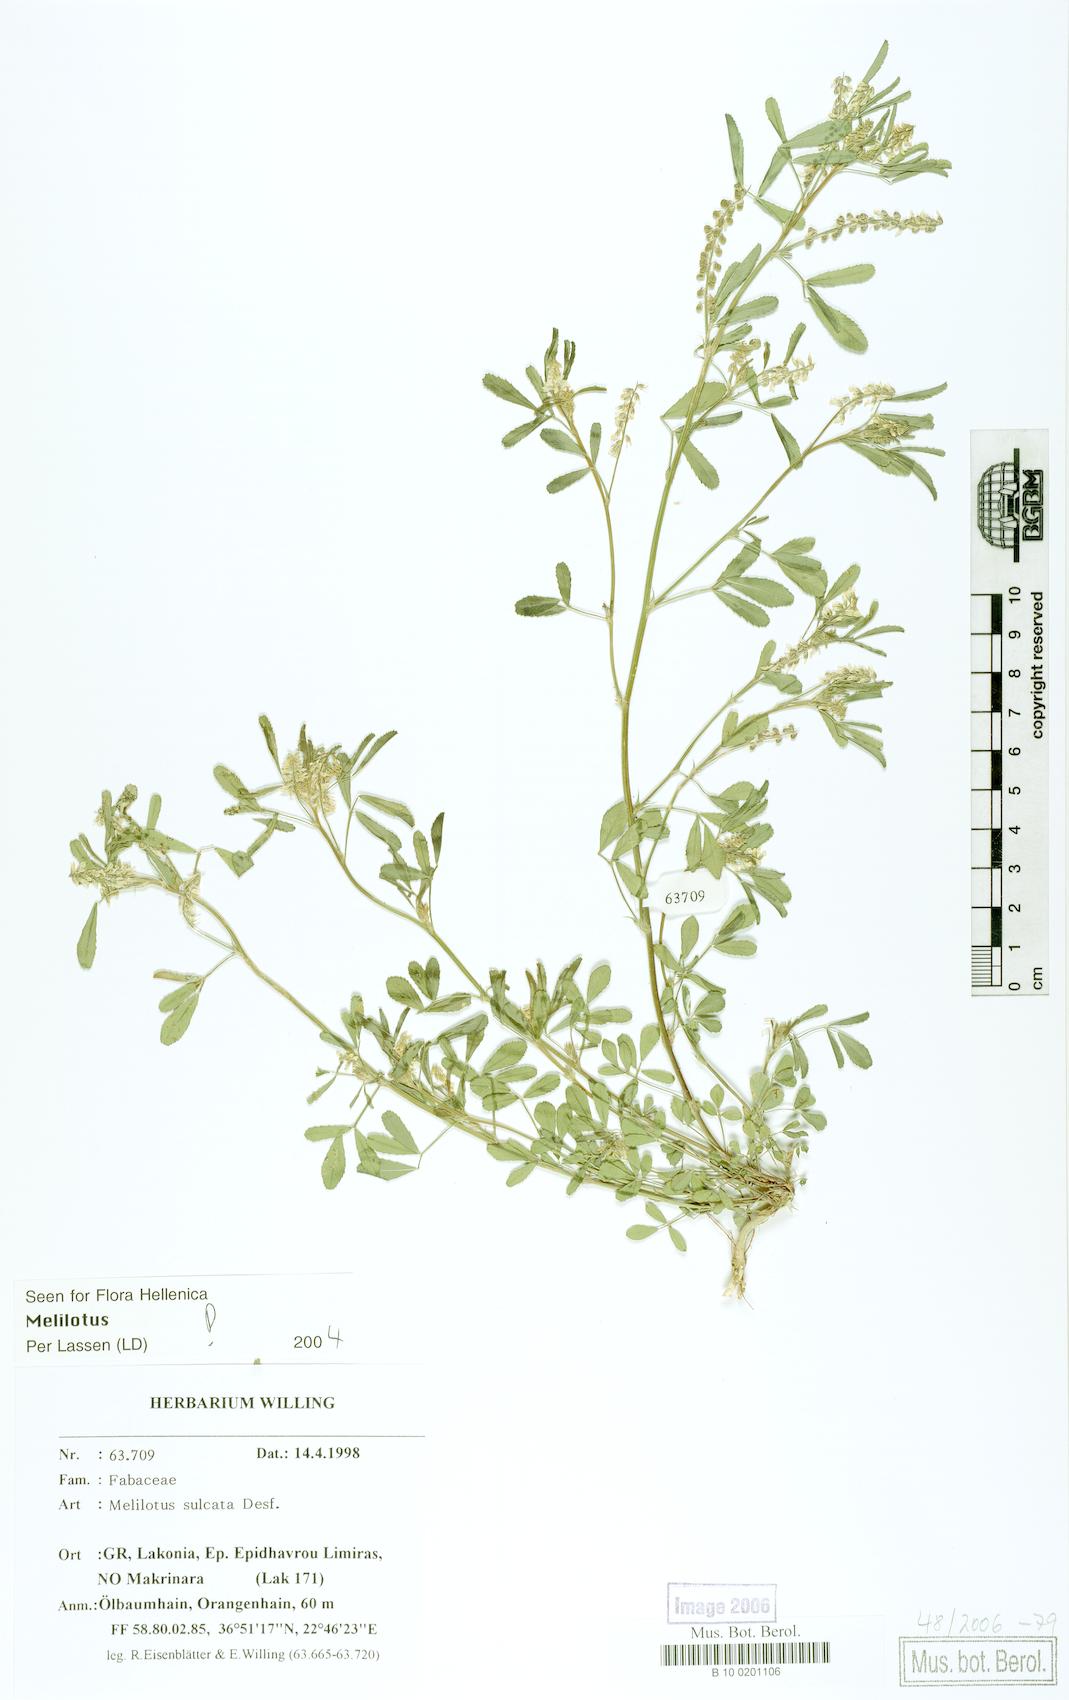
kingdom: Plantae
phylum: Tracheophyta
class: Magnoliopsida
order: Fabales
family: Fabaceae
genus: Melilotus
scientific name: Melilotus sulcatus
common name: Furrowed melilot
